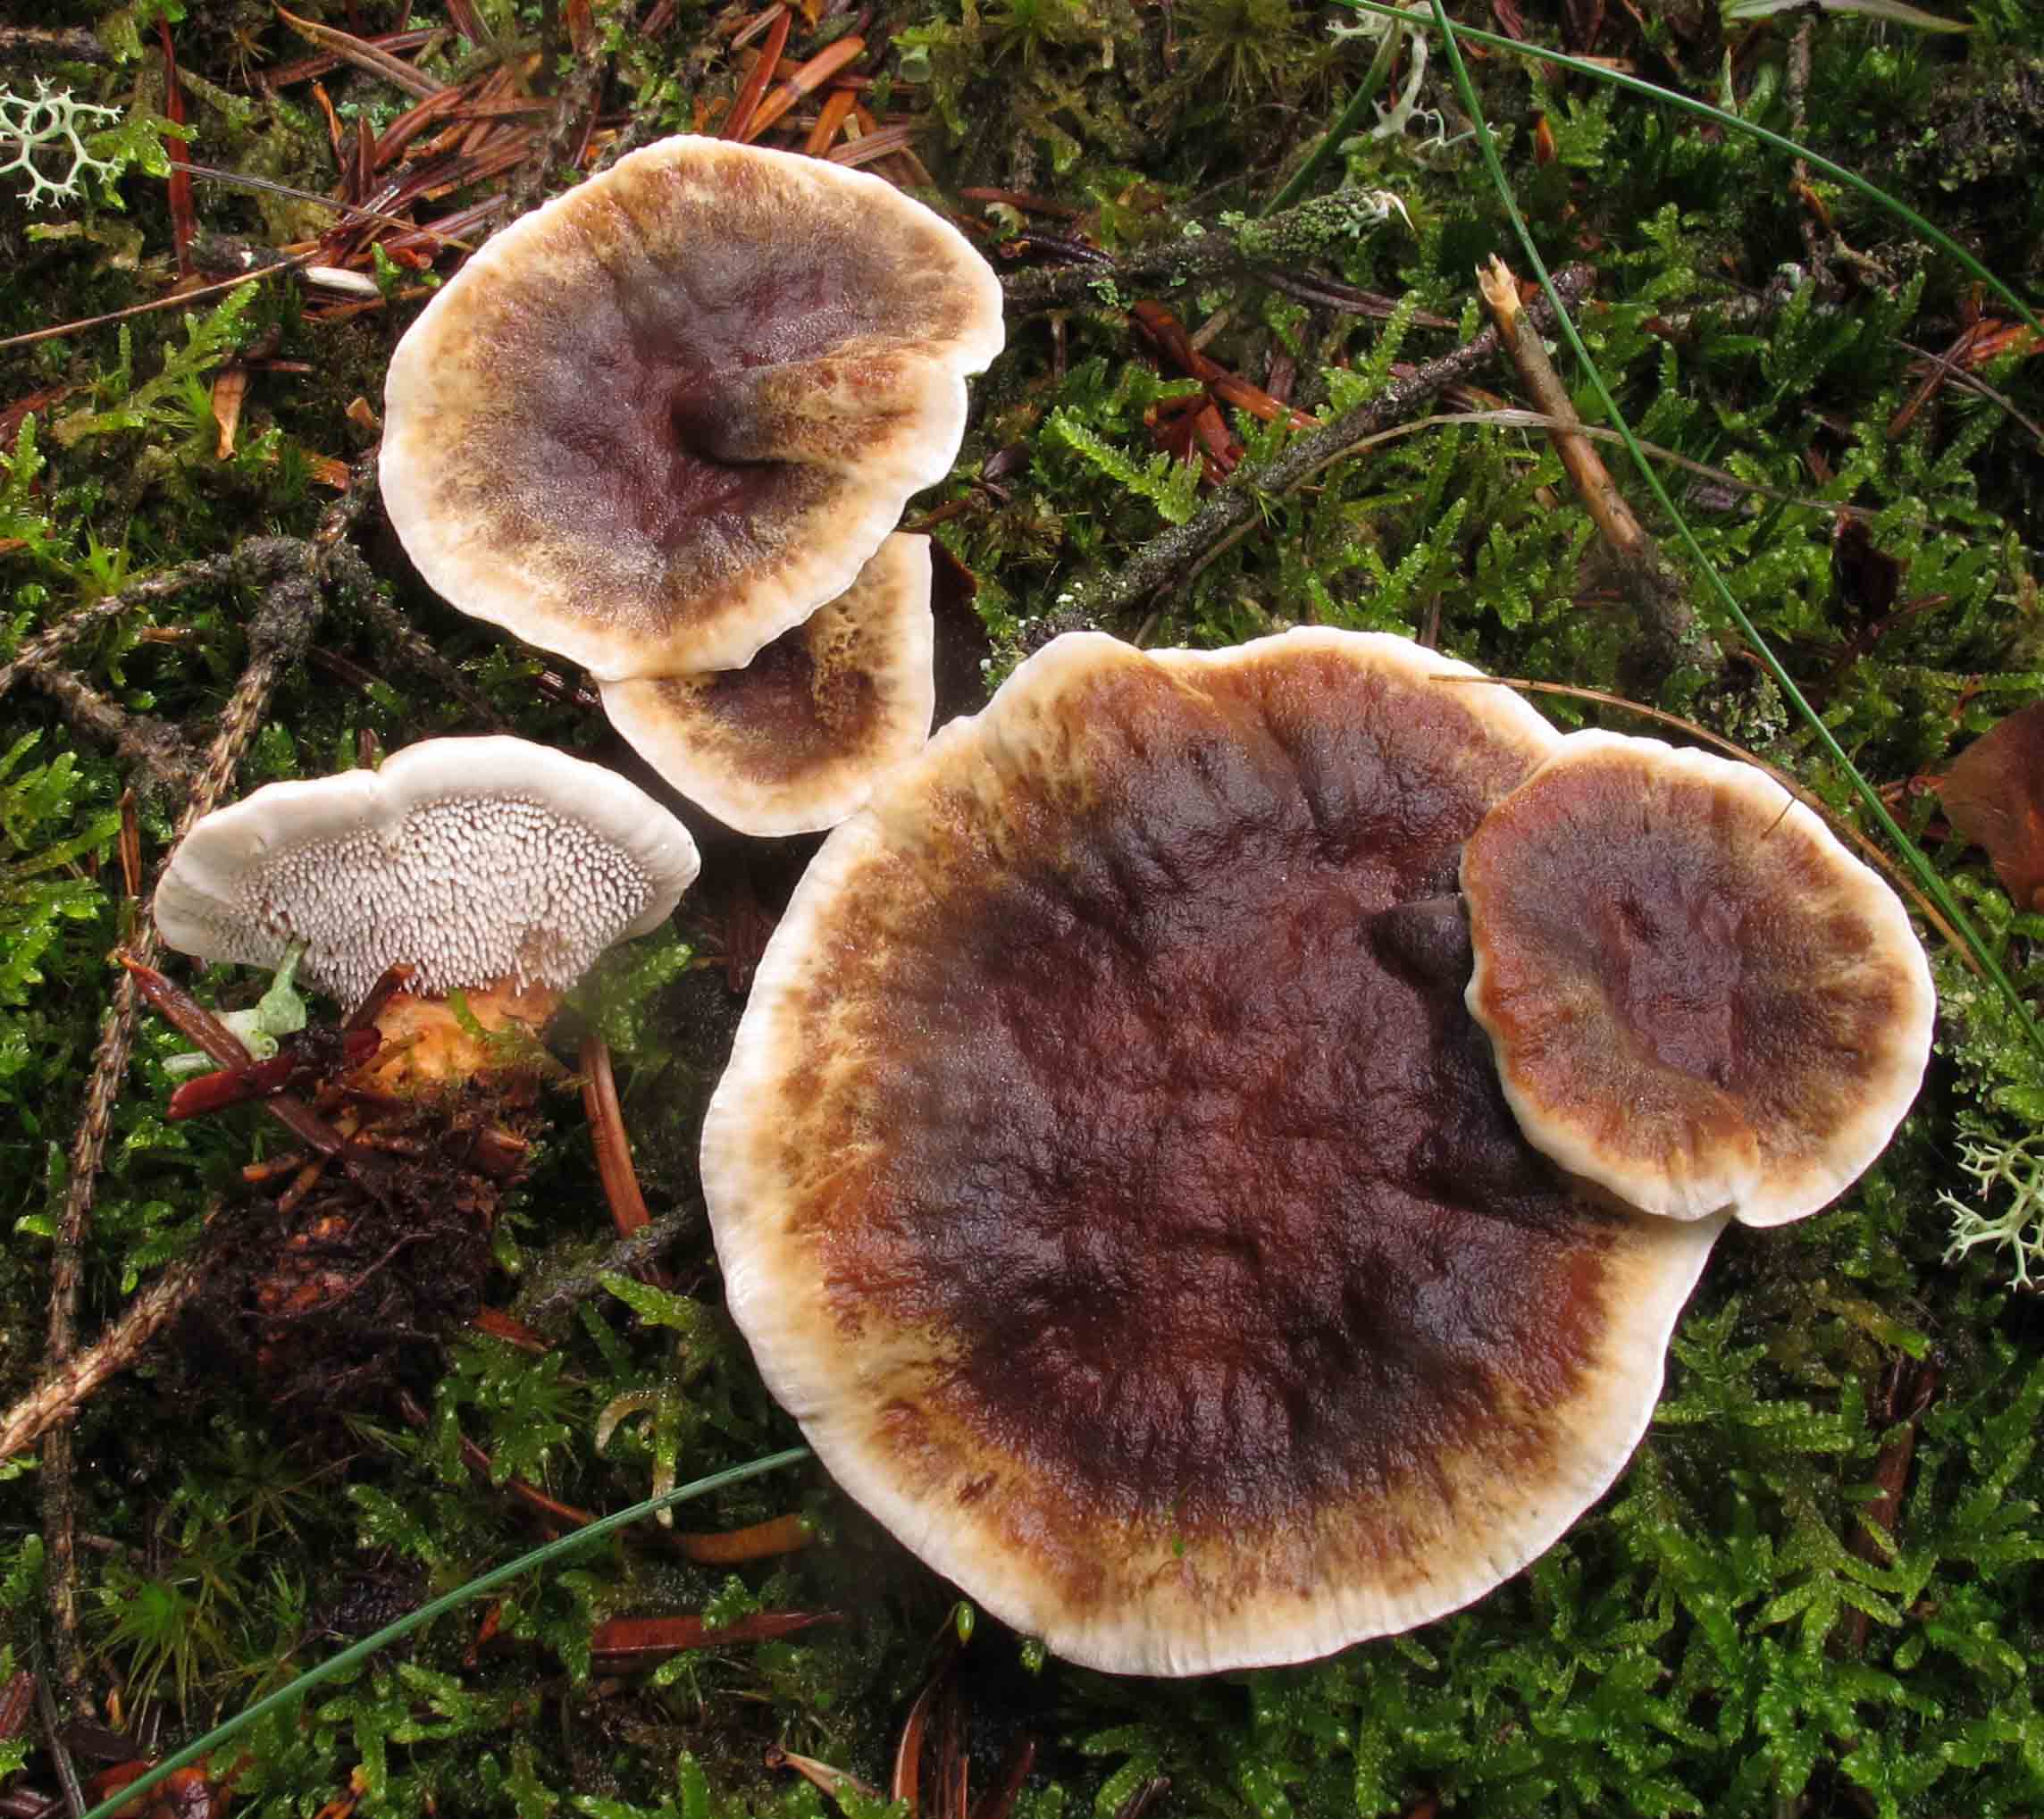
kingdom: Fungi
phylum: Basidiomycota
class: Agaricomycetes
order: Thelephorales
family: Bankeraceae
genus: Hydnellum
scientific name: Hydnellum aurantiacum
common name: orange korkpigsvamp
